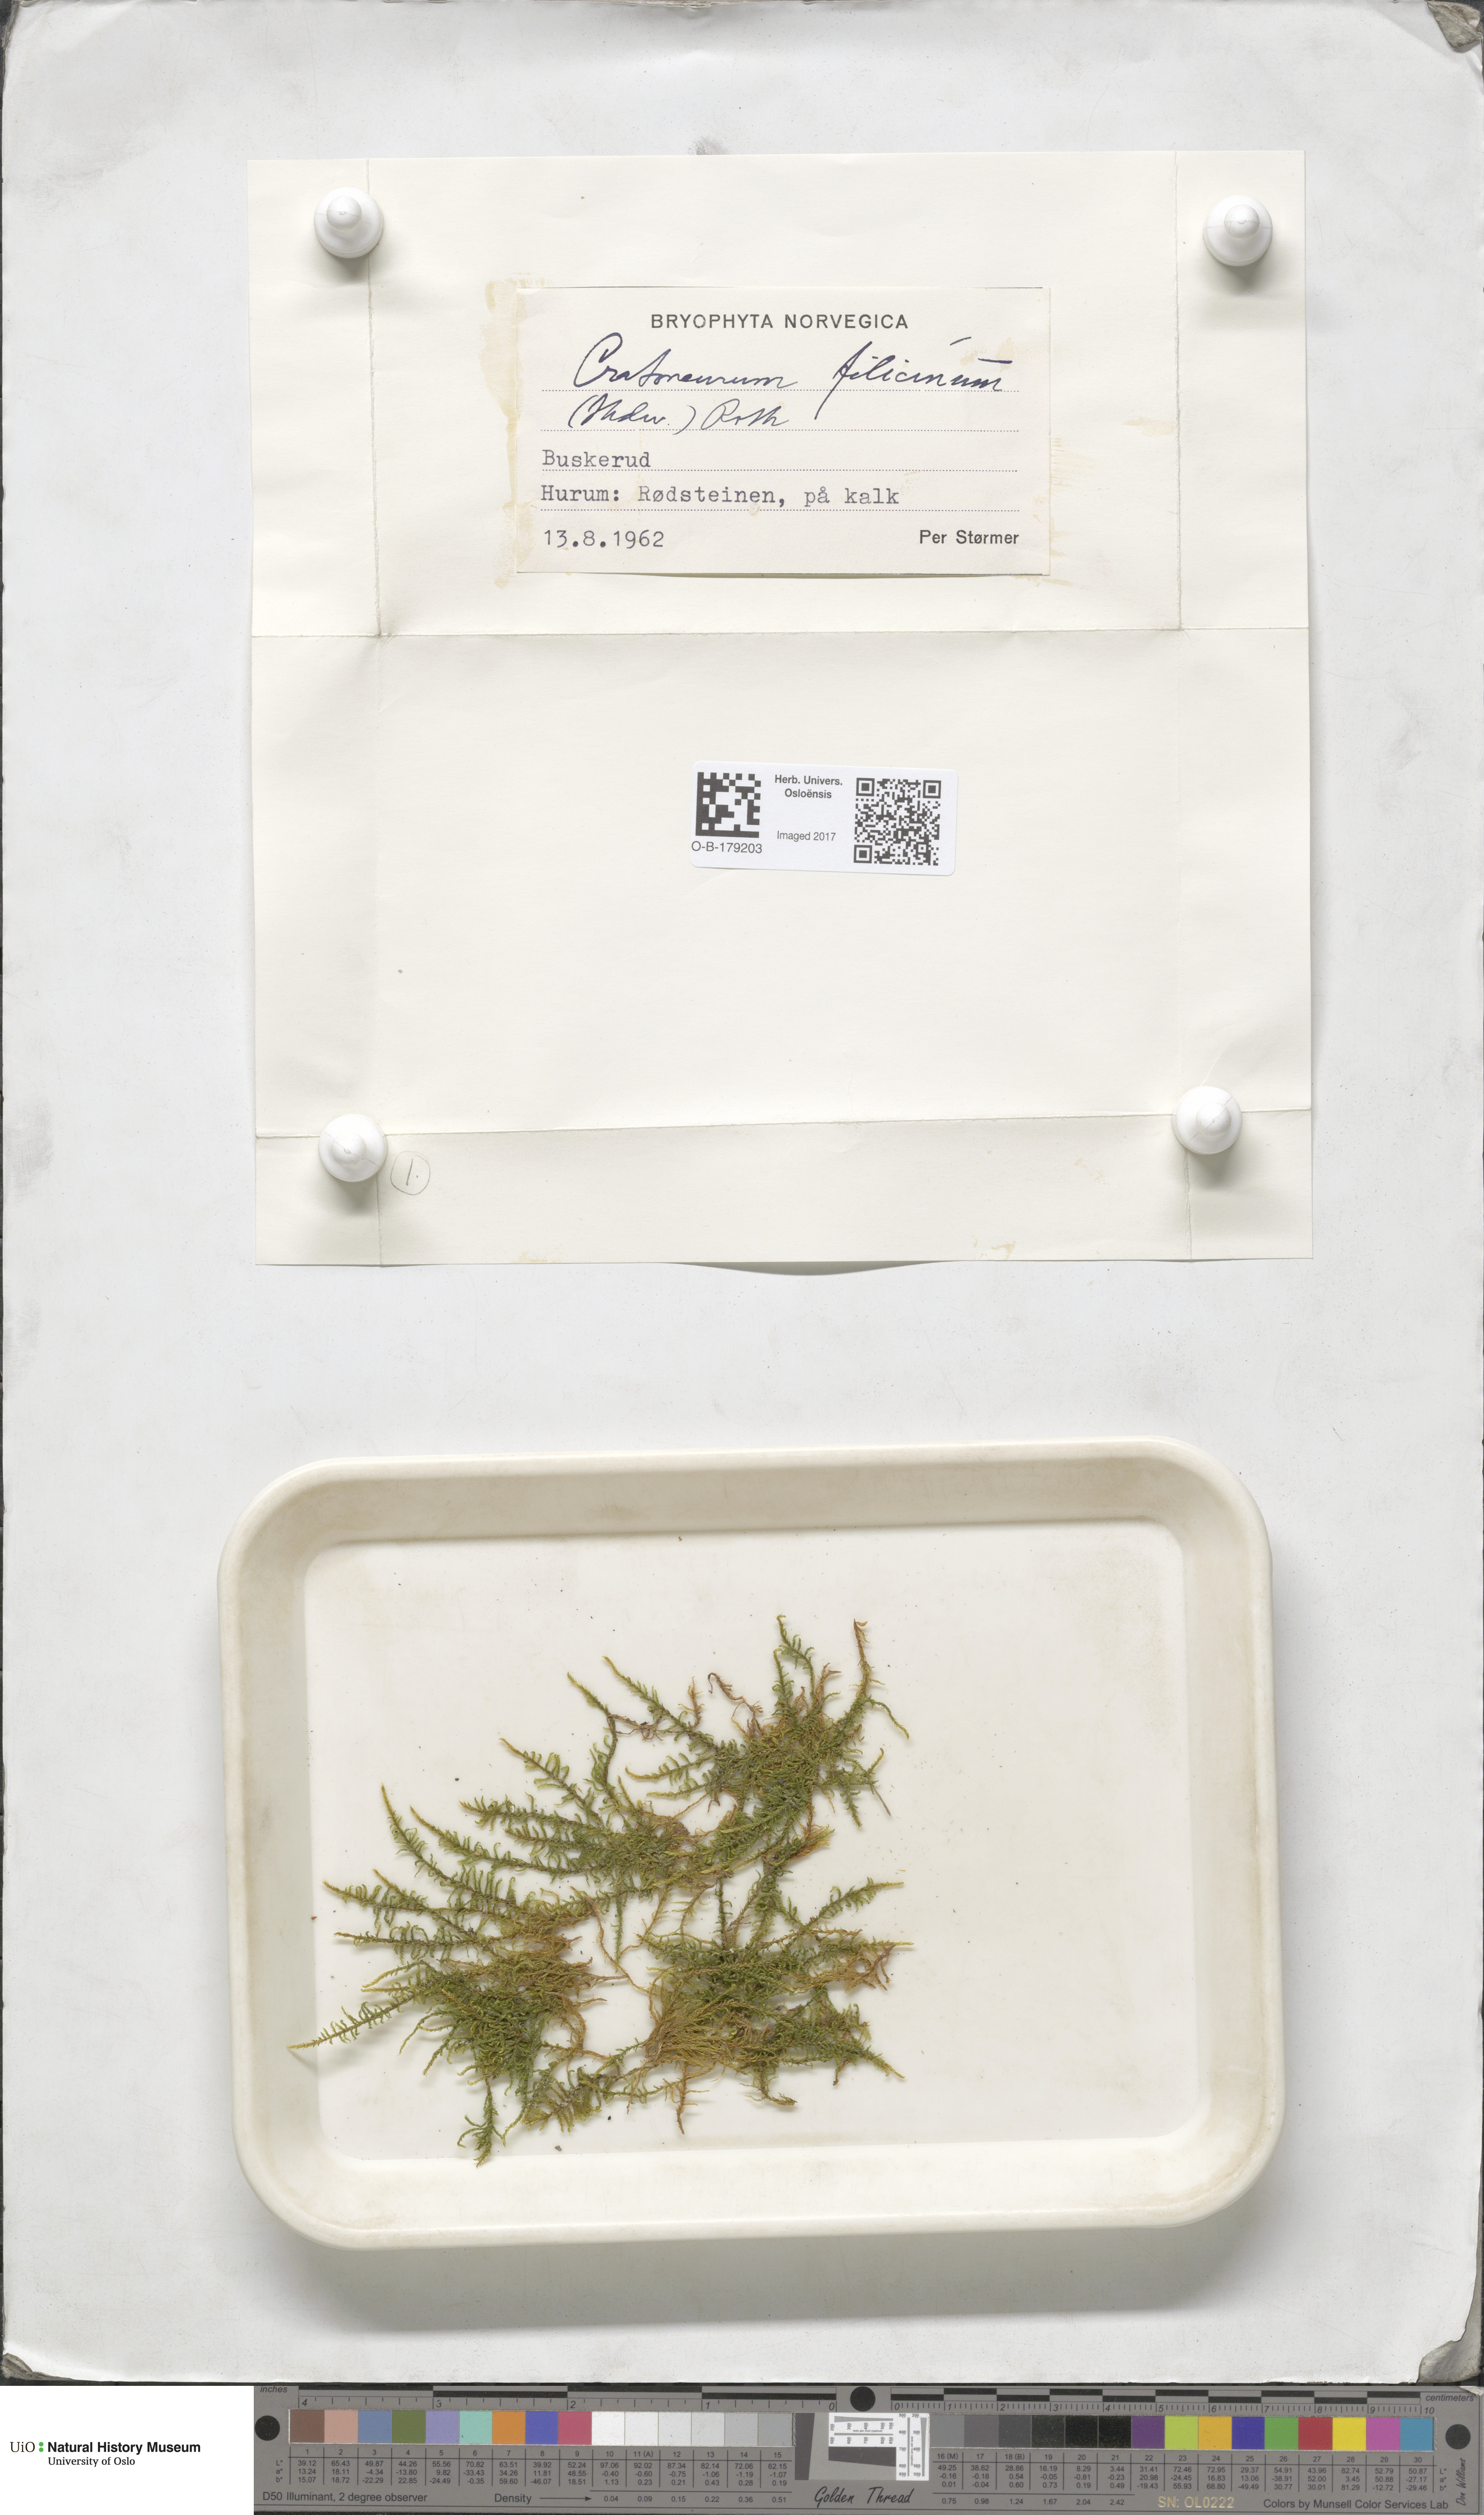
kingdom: Plantae
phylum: Bryophyta
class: Bryopsida
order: Hypnales
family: Amblystegiaceae
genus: Cratoneuron
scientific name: Cratoneuron filicinum
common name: Fern-leaved hook moss
